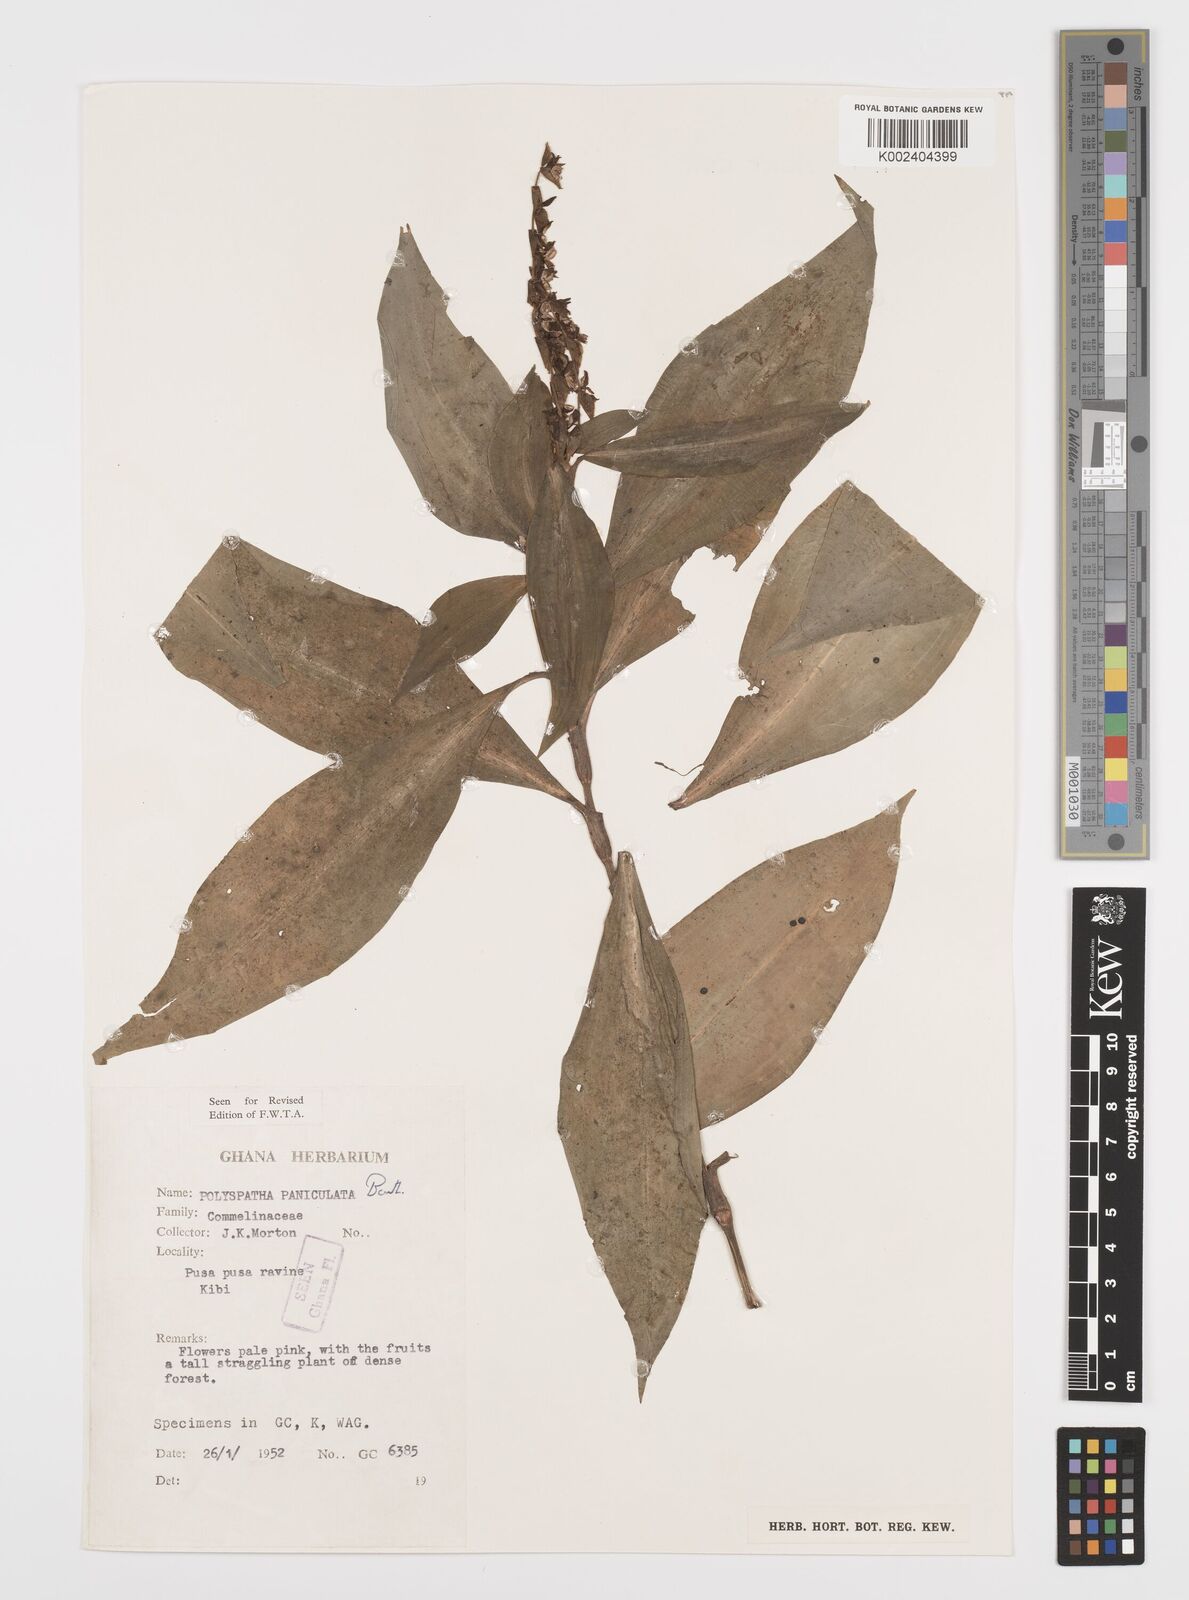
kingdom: Plantae
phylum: Tracheophyta
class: Liliopsida
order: Commelinales
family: Commelinaceae
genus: Polyspatha
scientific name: Polyspatha paniculata
